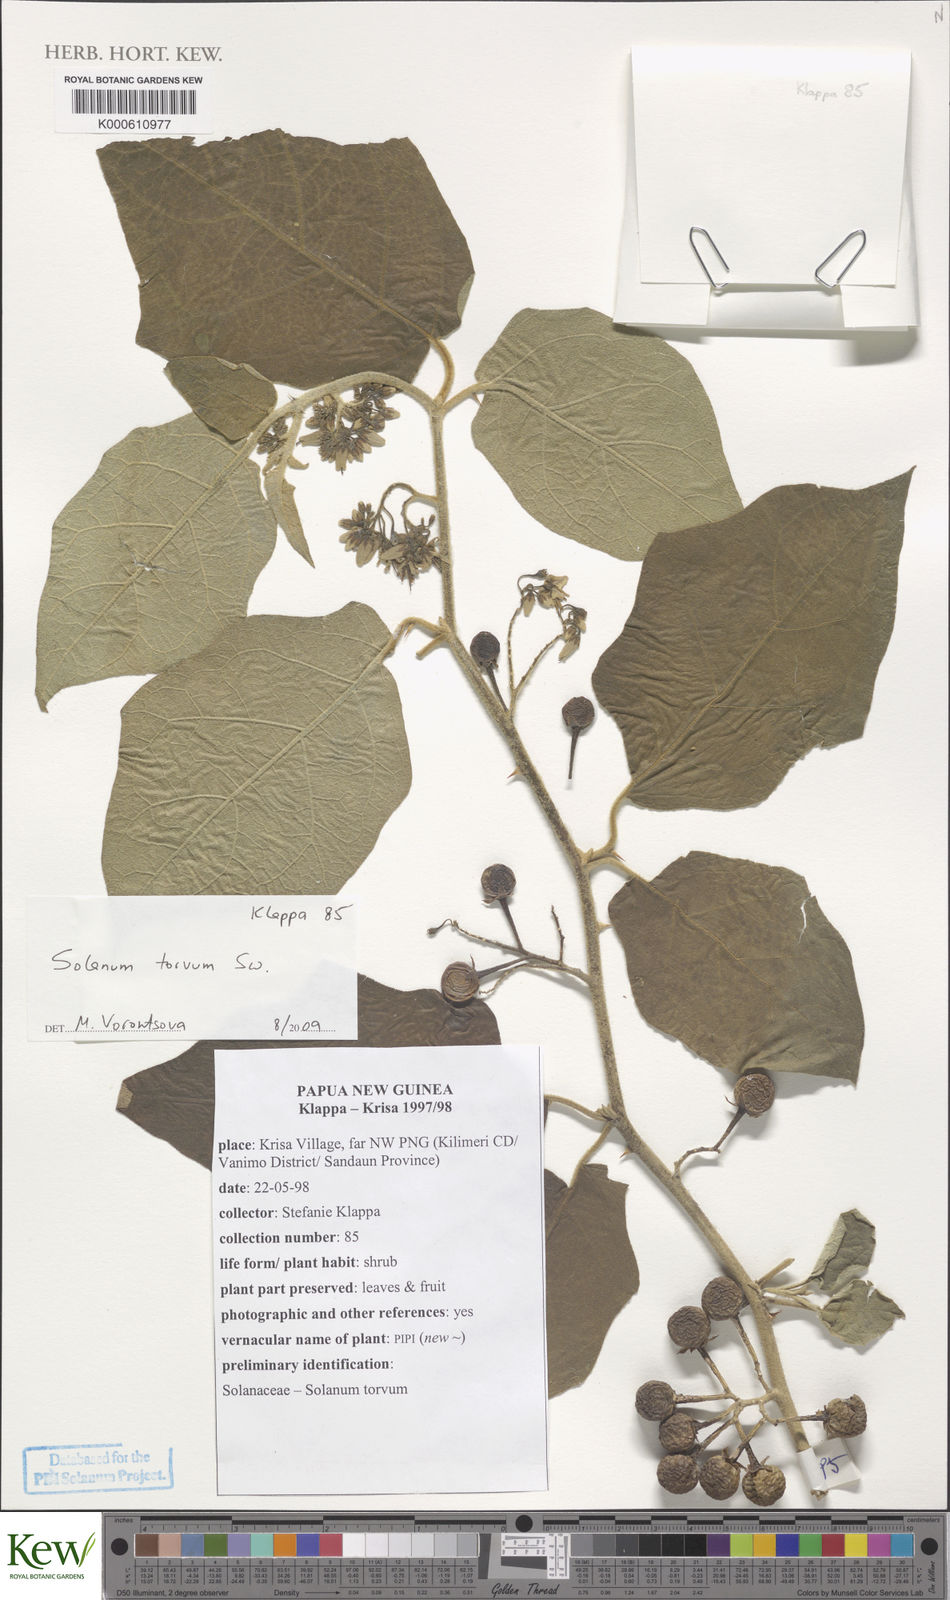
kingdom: Plantae
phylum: Tracheophyta
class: Magnoliopsida
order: Solanales
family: Solanaceae
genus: Solanum
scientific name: Solanum torvum
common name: Turkey berry
